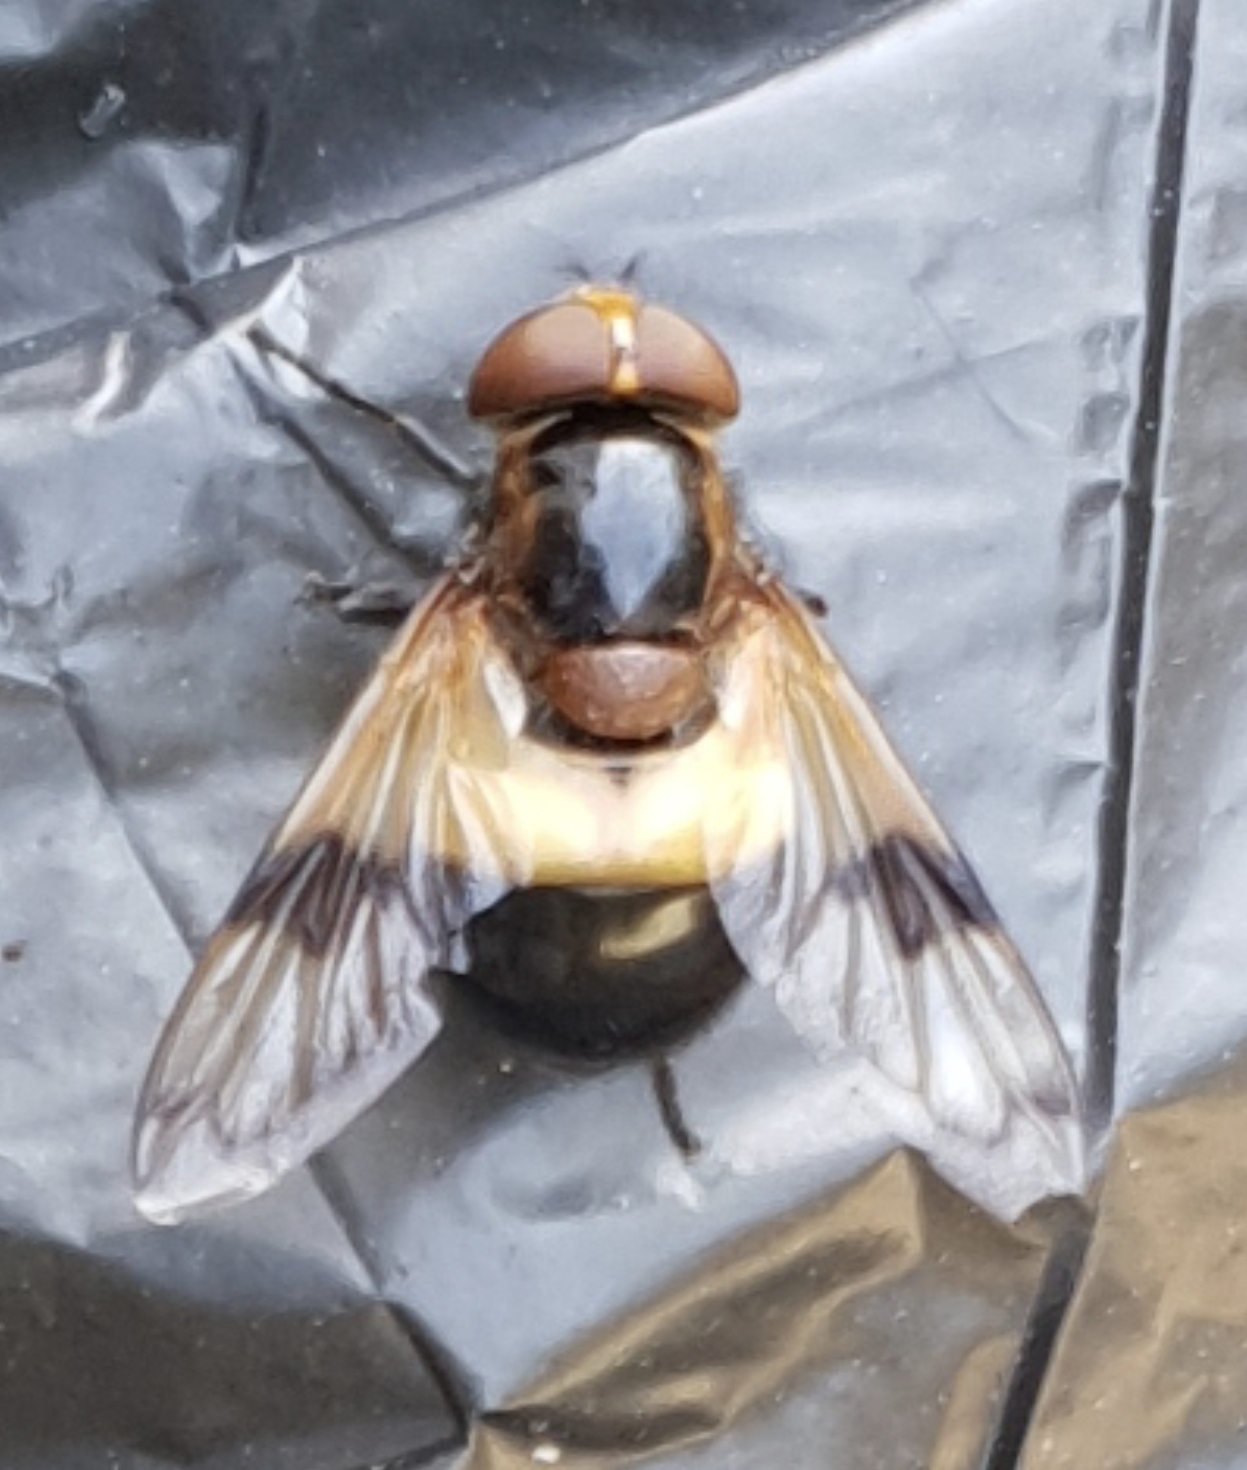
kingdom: Animalia
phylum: Arthropoda
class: Insecta
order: Diptera
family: Syrphidae
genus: Volucella
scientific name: Volucella pellucens
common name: Hvidbåndet humlesvirreflue
